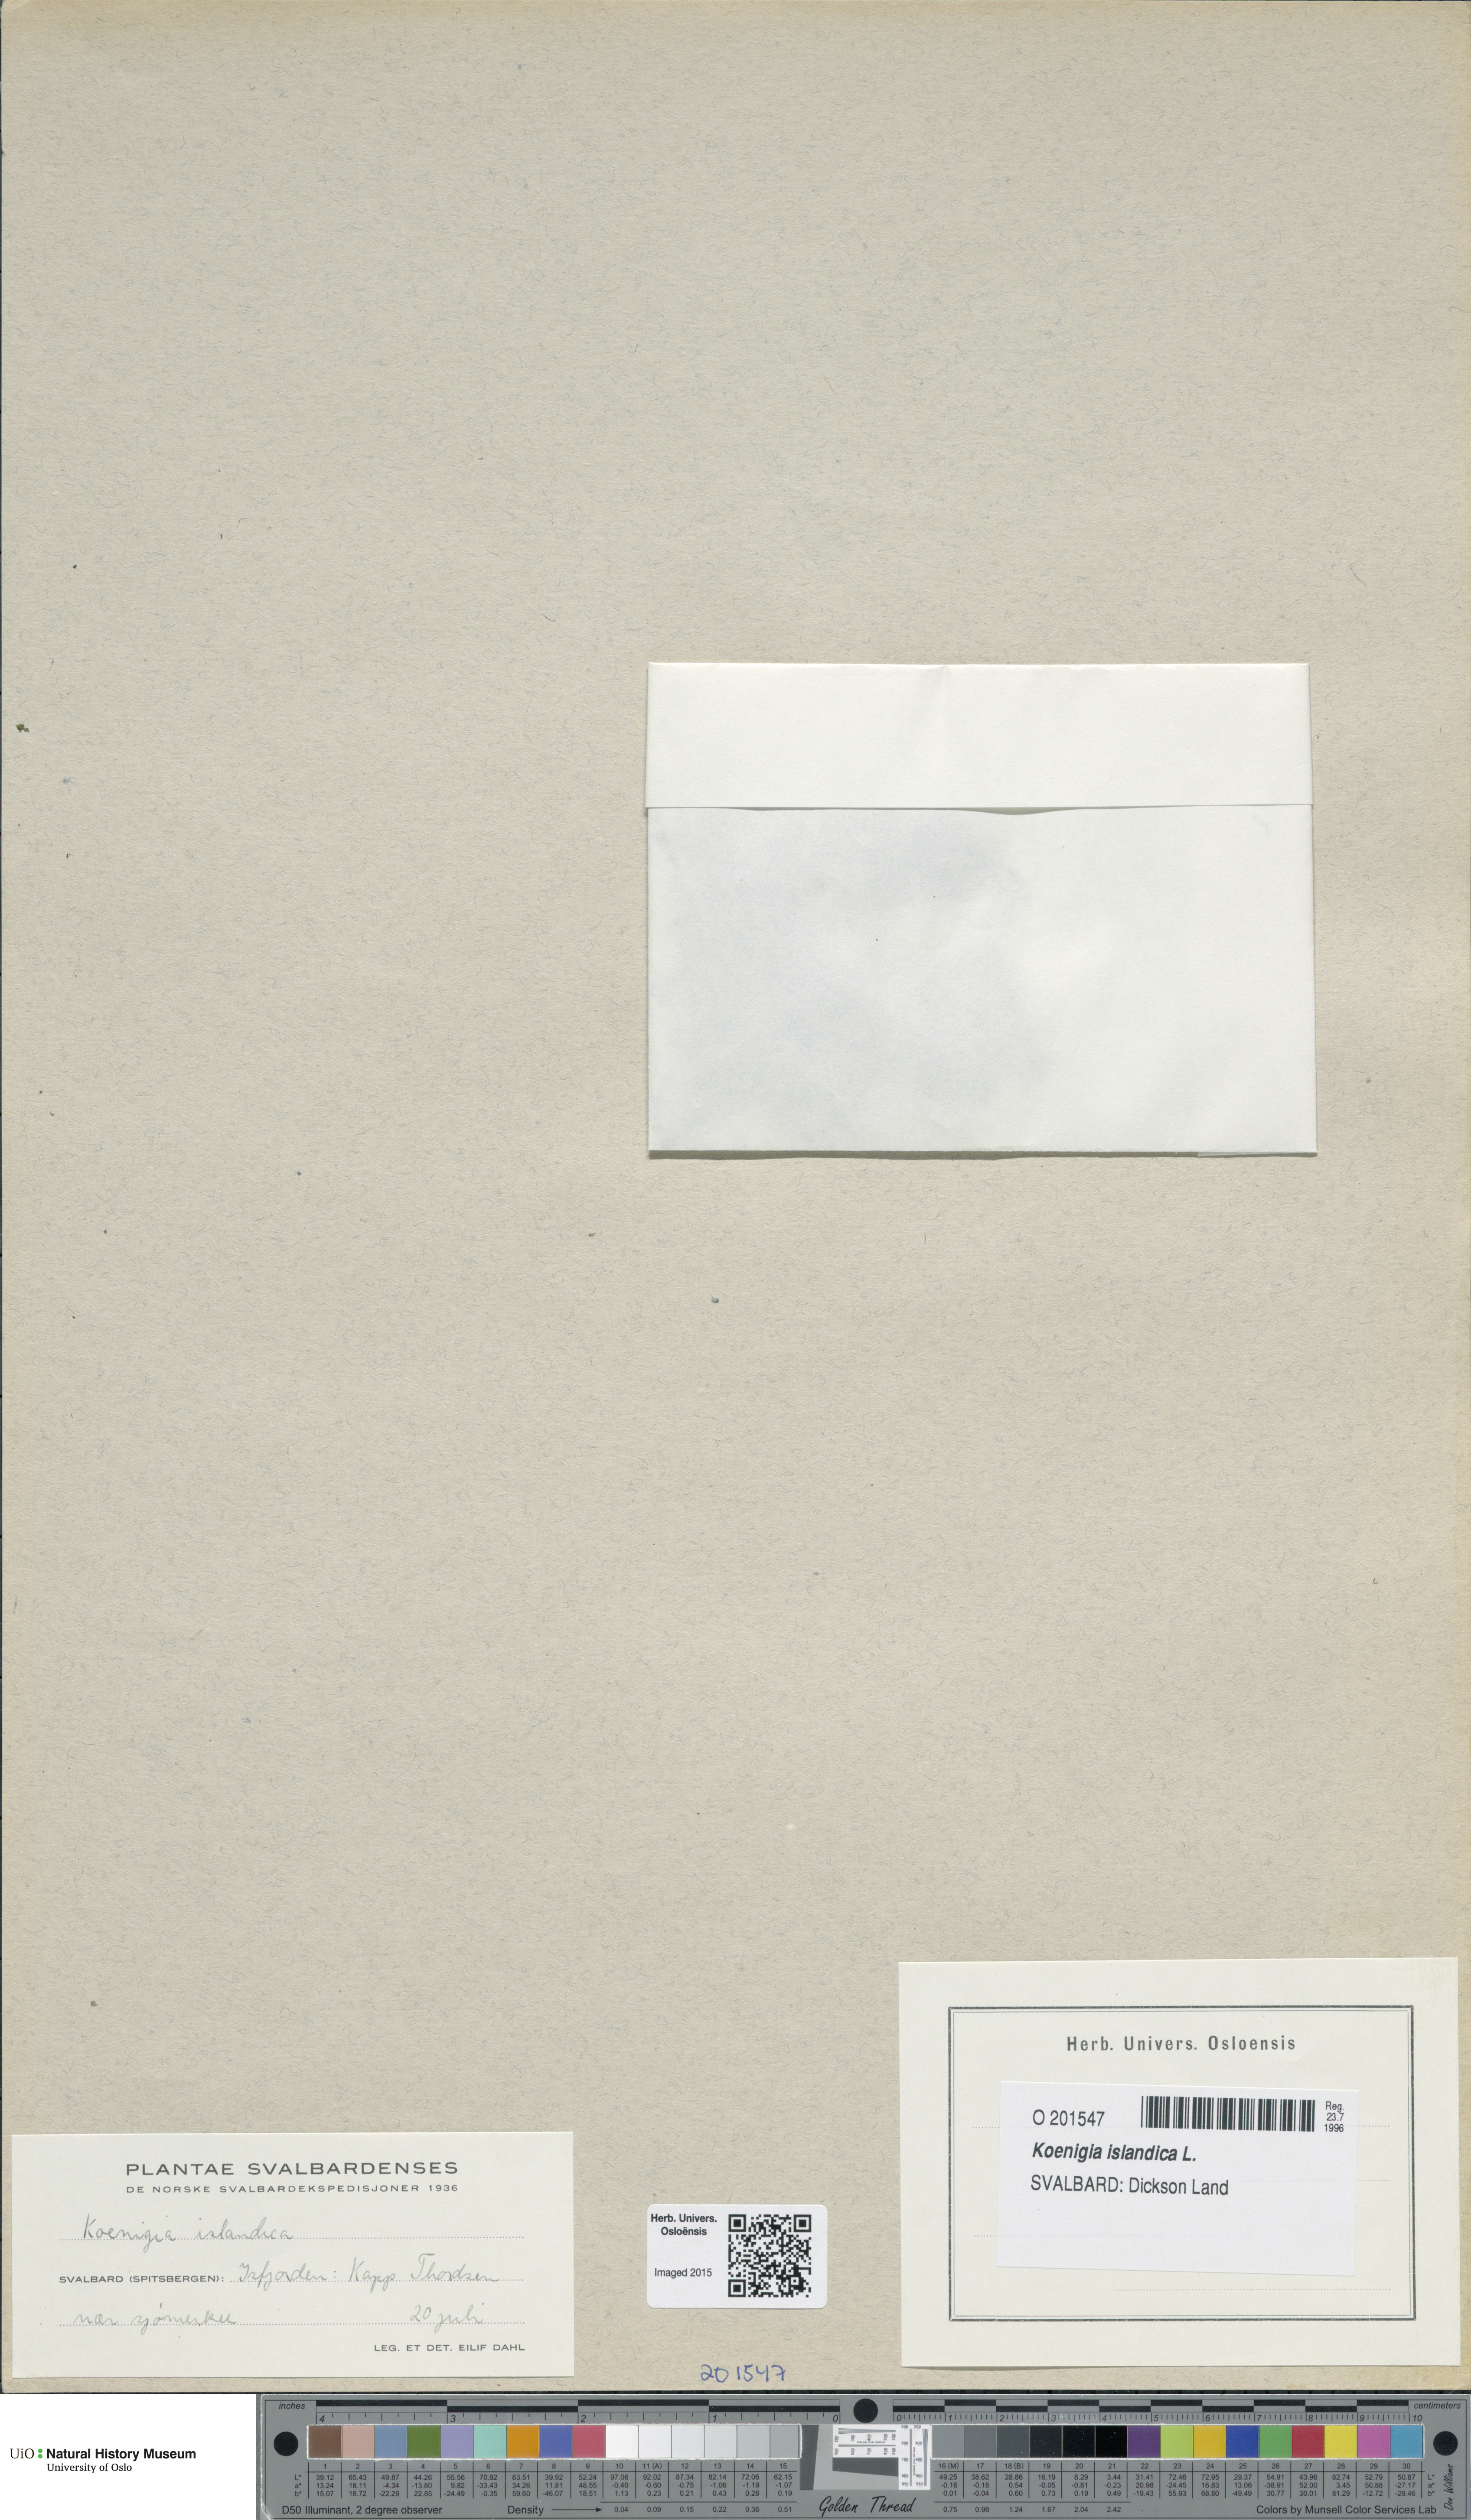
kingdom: Plantae
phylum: Tracheophyta
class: Magnoliopsida
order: Caryophyllales
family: Polygonaceae
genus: Koenigia
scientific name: Koenigia islandica
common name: Iceland-purslane
